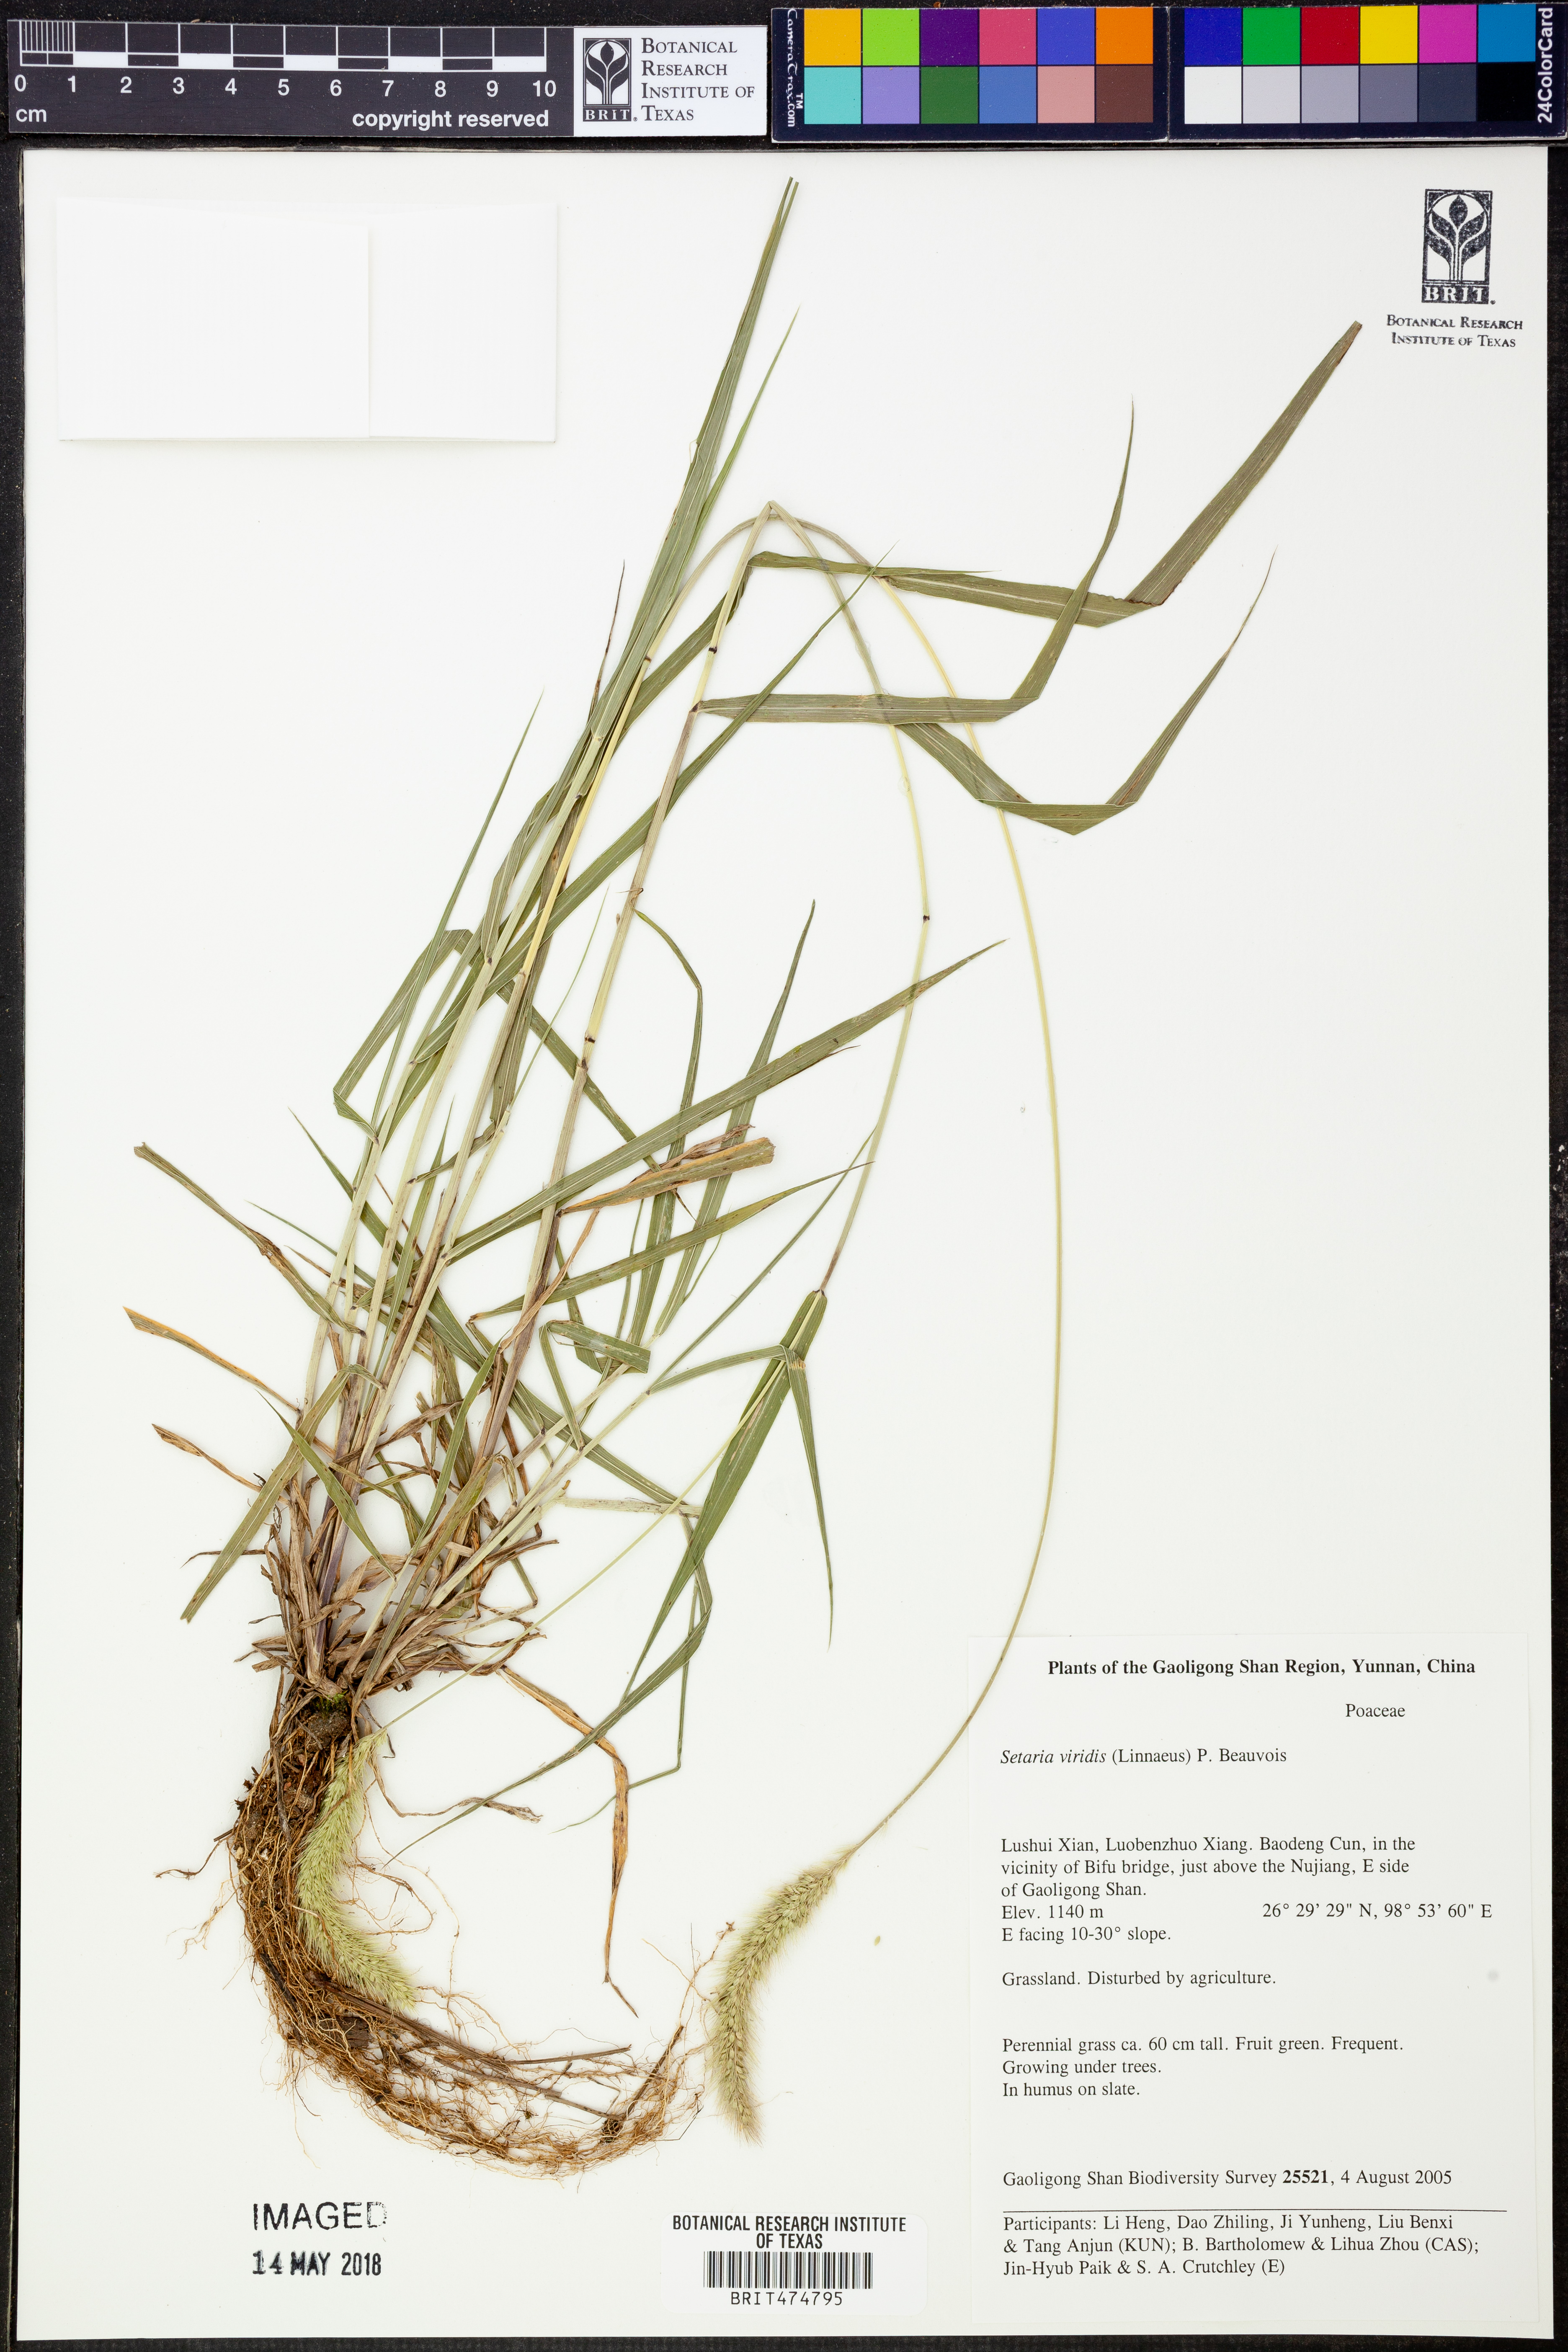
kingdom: Plantae
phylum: Tracheophyta
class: Liliopsida
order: Poales
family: Poaceae
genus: Setaria
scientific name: Setaria viridis
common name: Green bristlegrass
